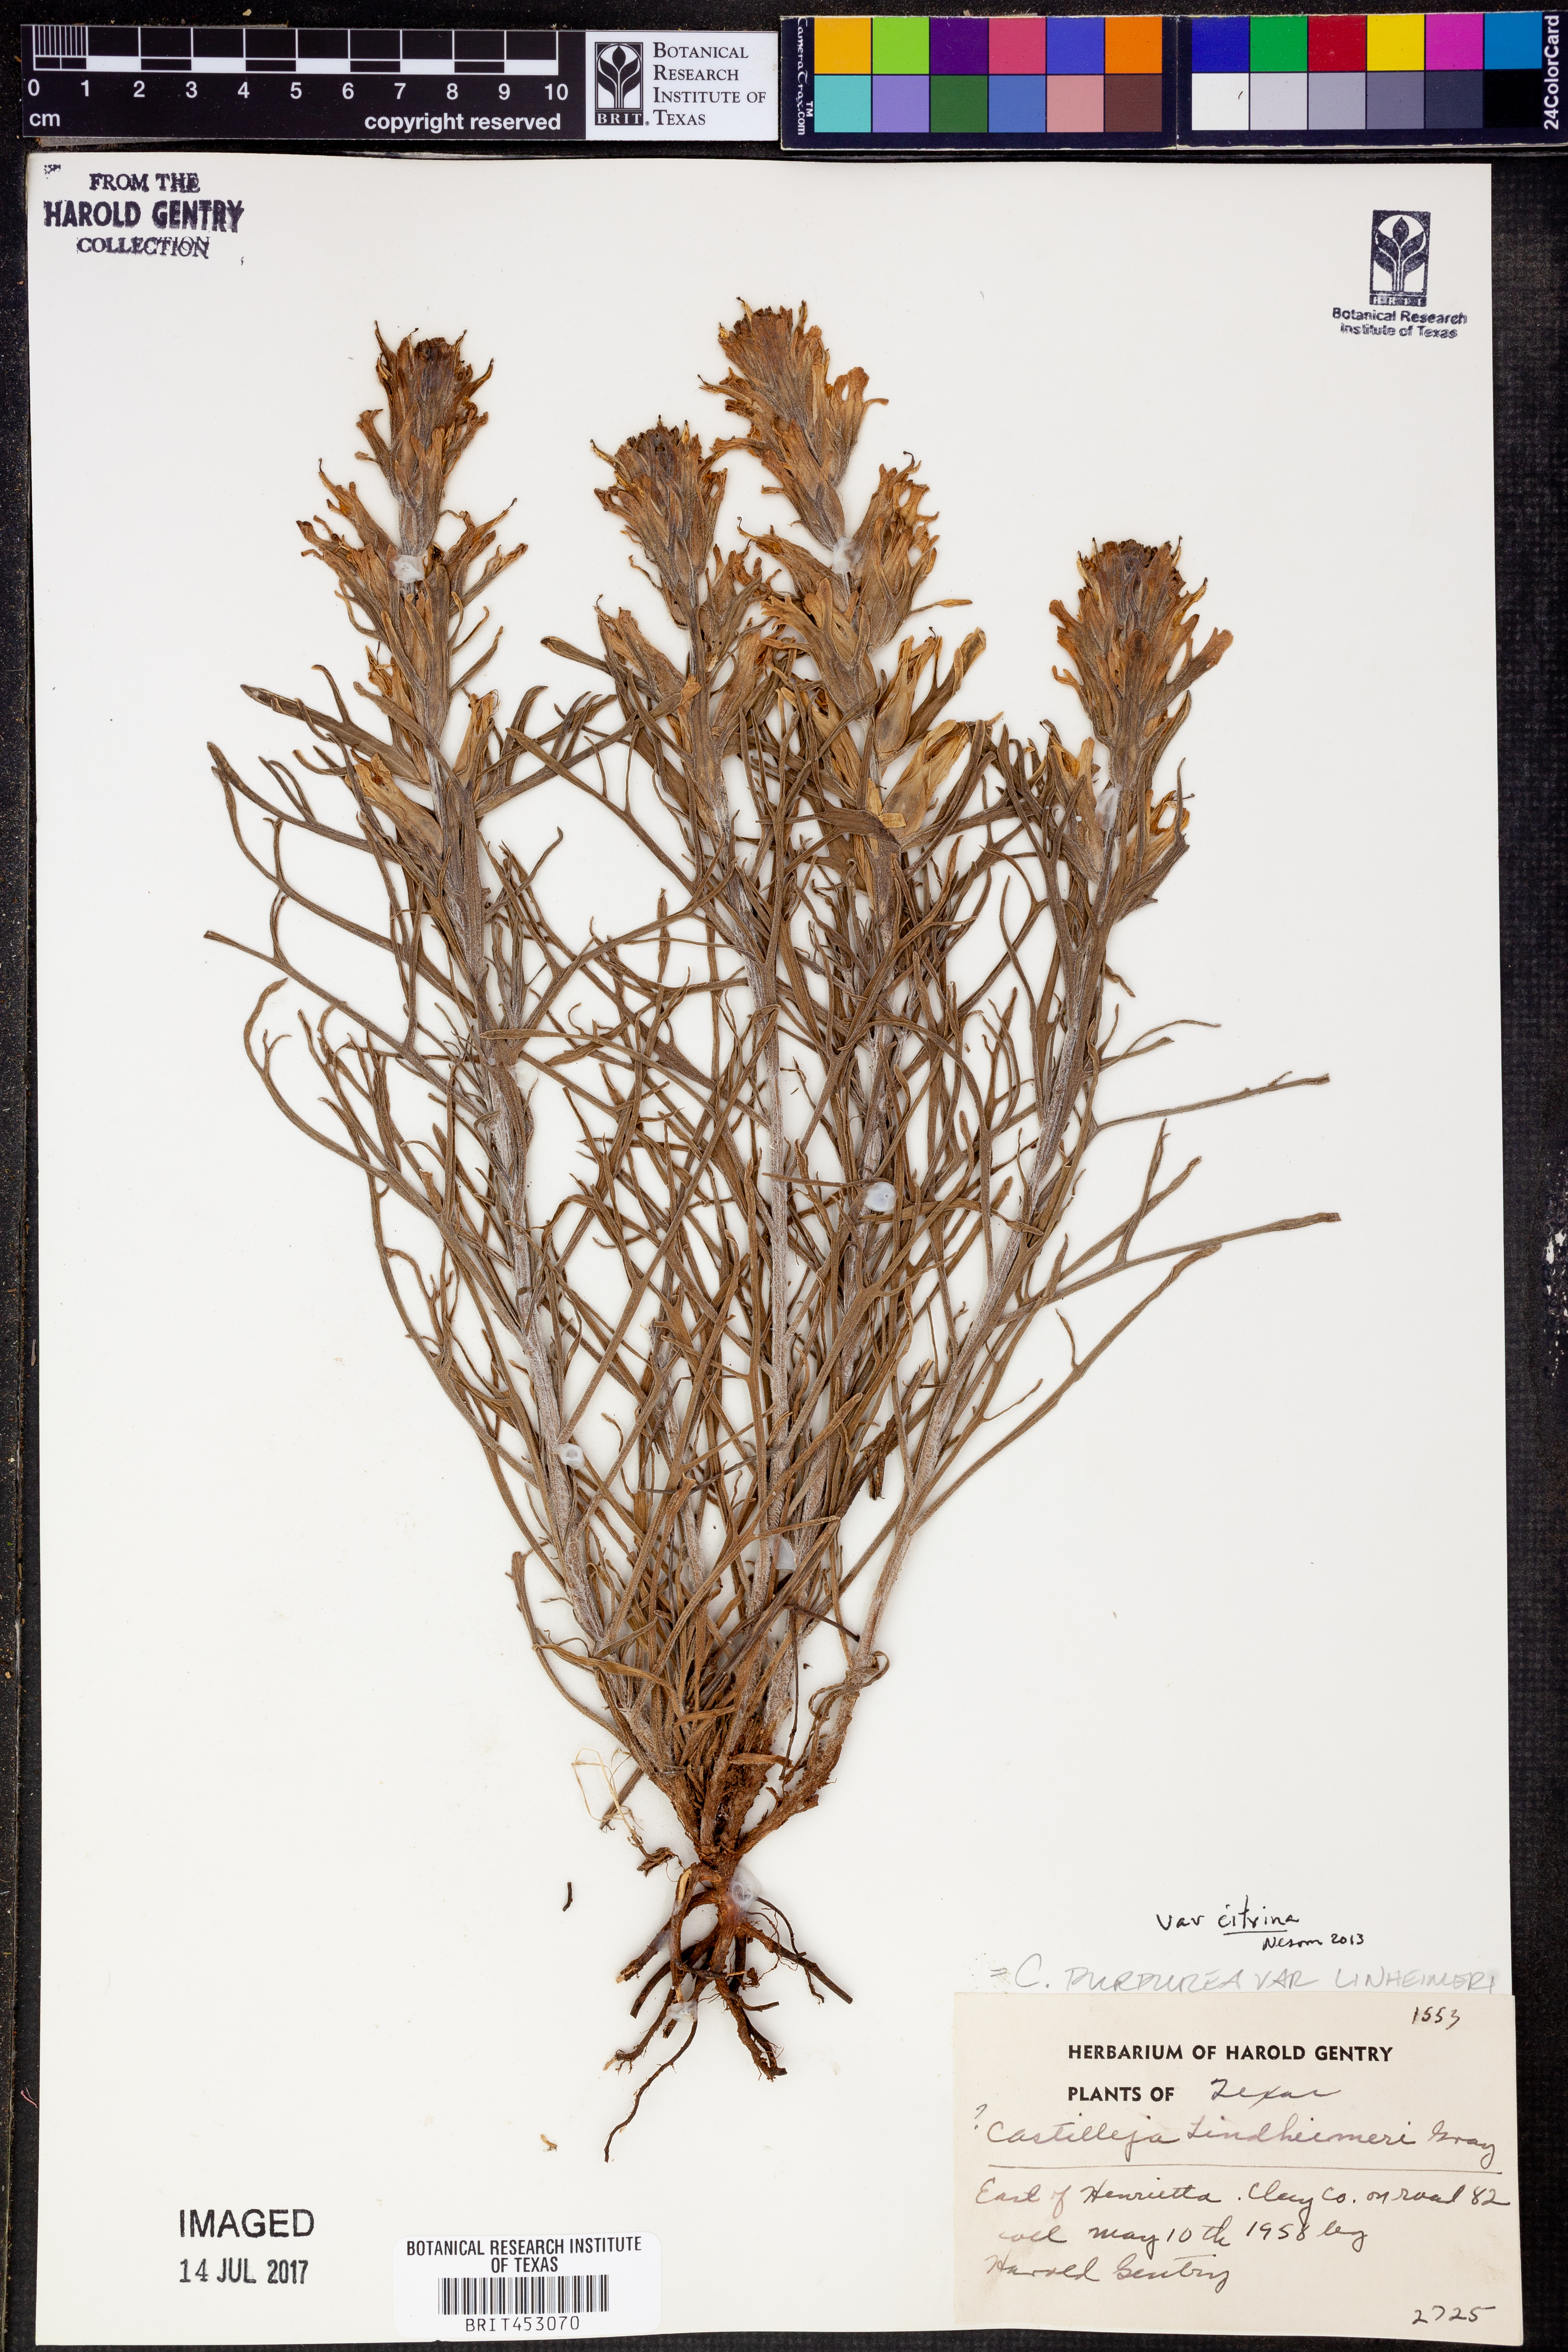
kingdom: Plantae
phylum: Tracheophyta
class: Magnoliopsida
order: Lamiales
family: Orobanchaceae
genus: Castilleja
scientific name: Castilleja citrina
